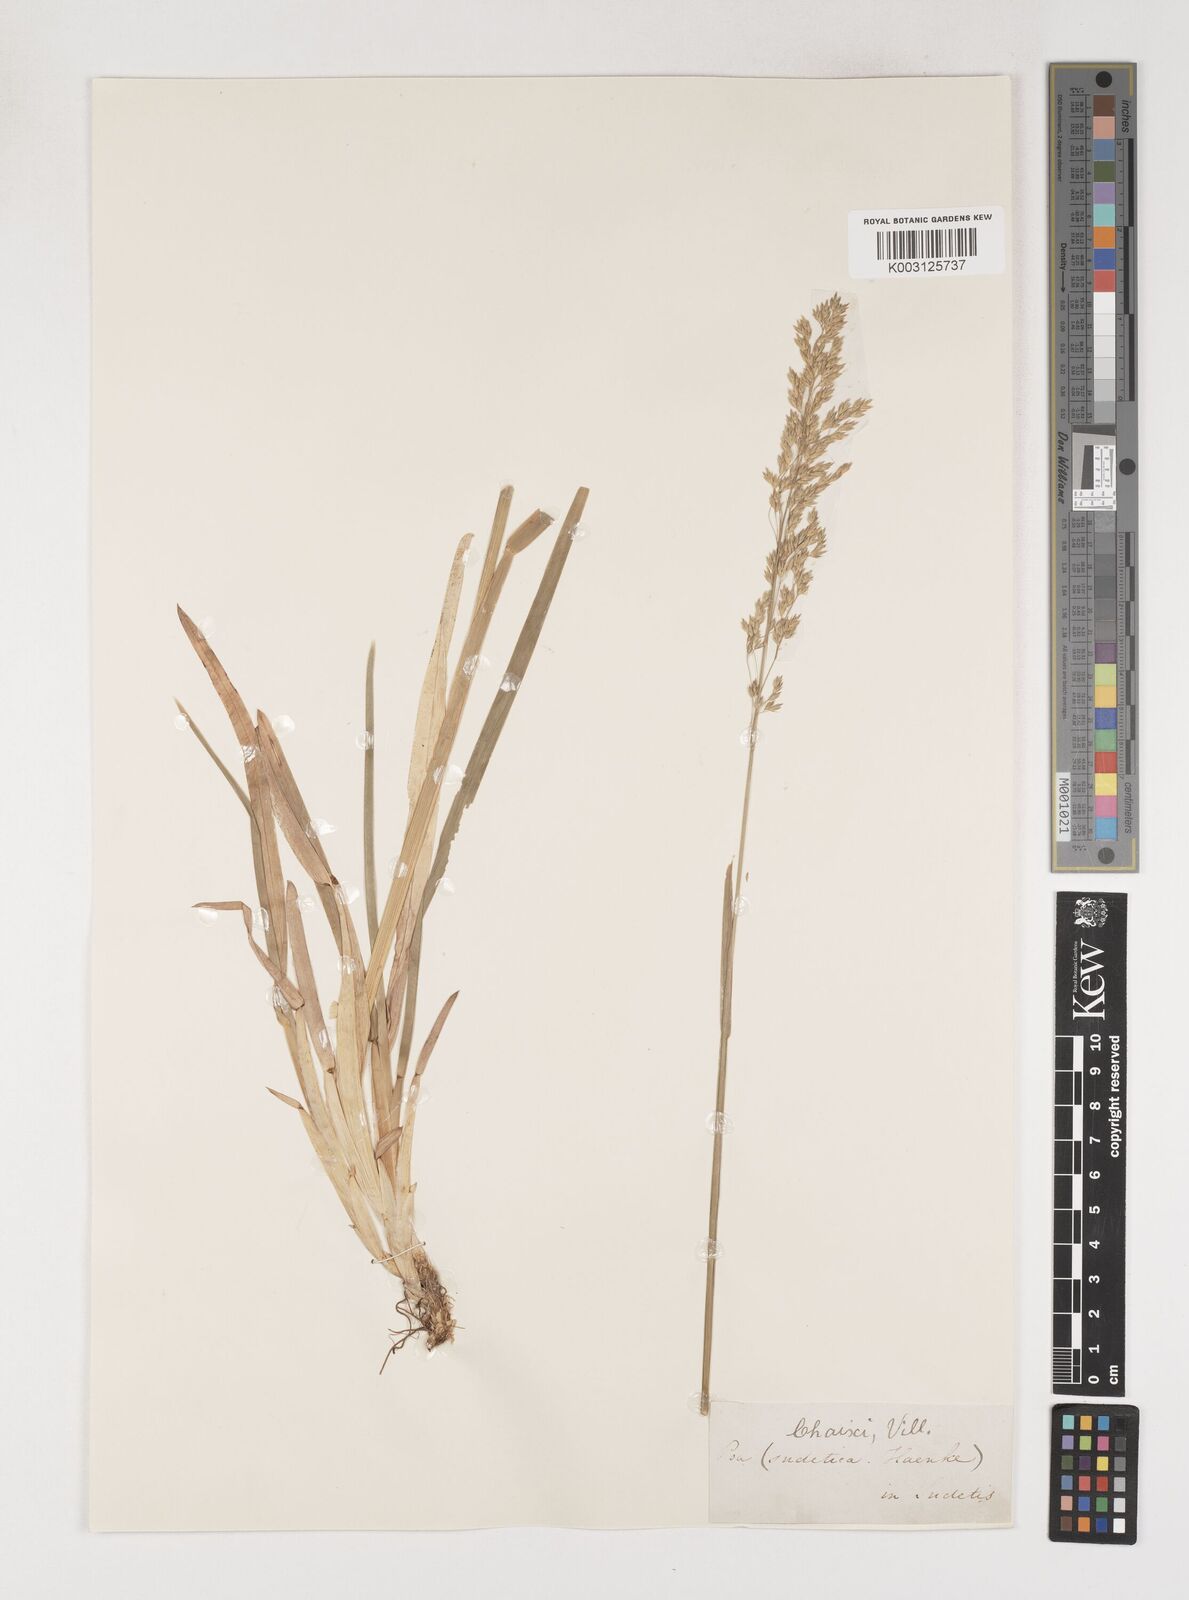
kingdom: Plantae
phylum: Tracheophyta
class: Liliopsida
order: Poales
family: Poaceae
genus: Poa
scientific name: Poa chaixii
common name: Broad-leaved meadow-grass
